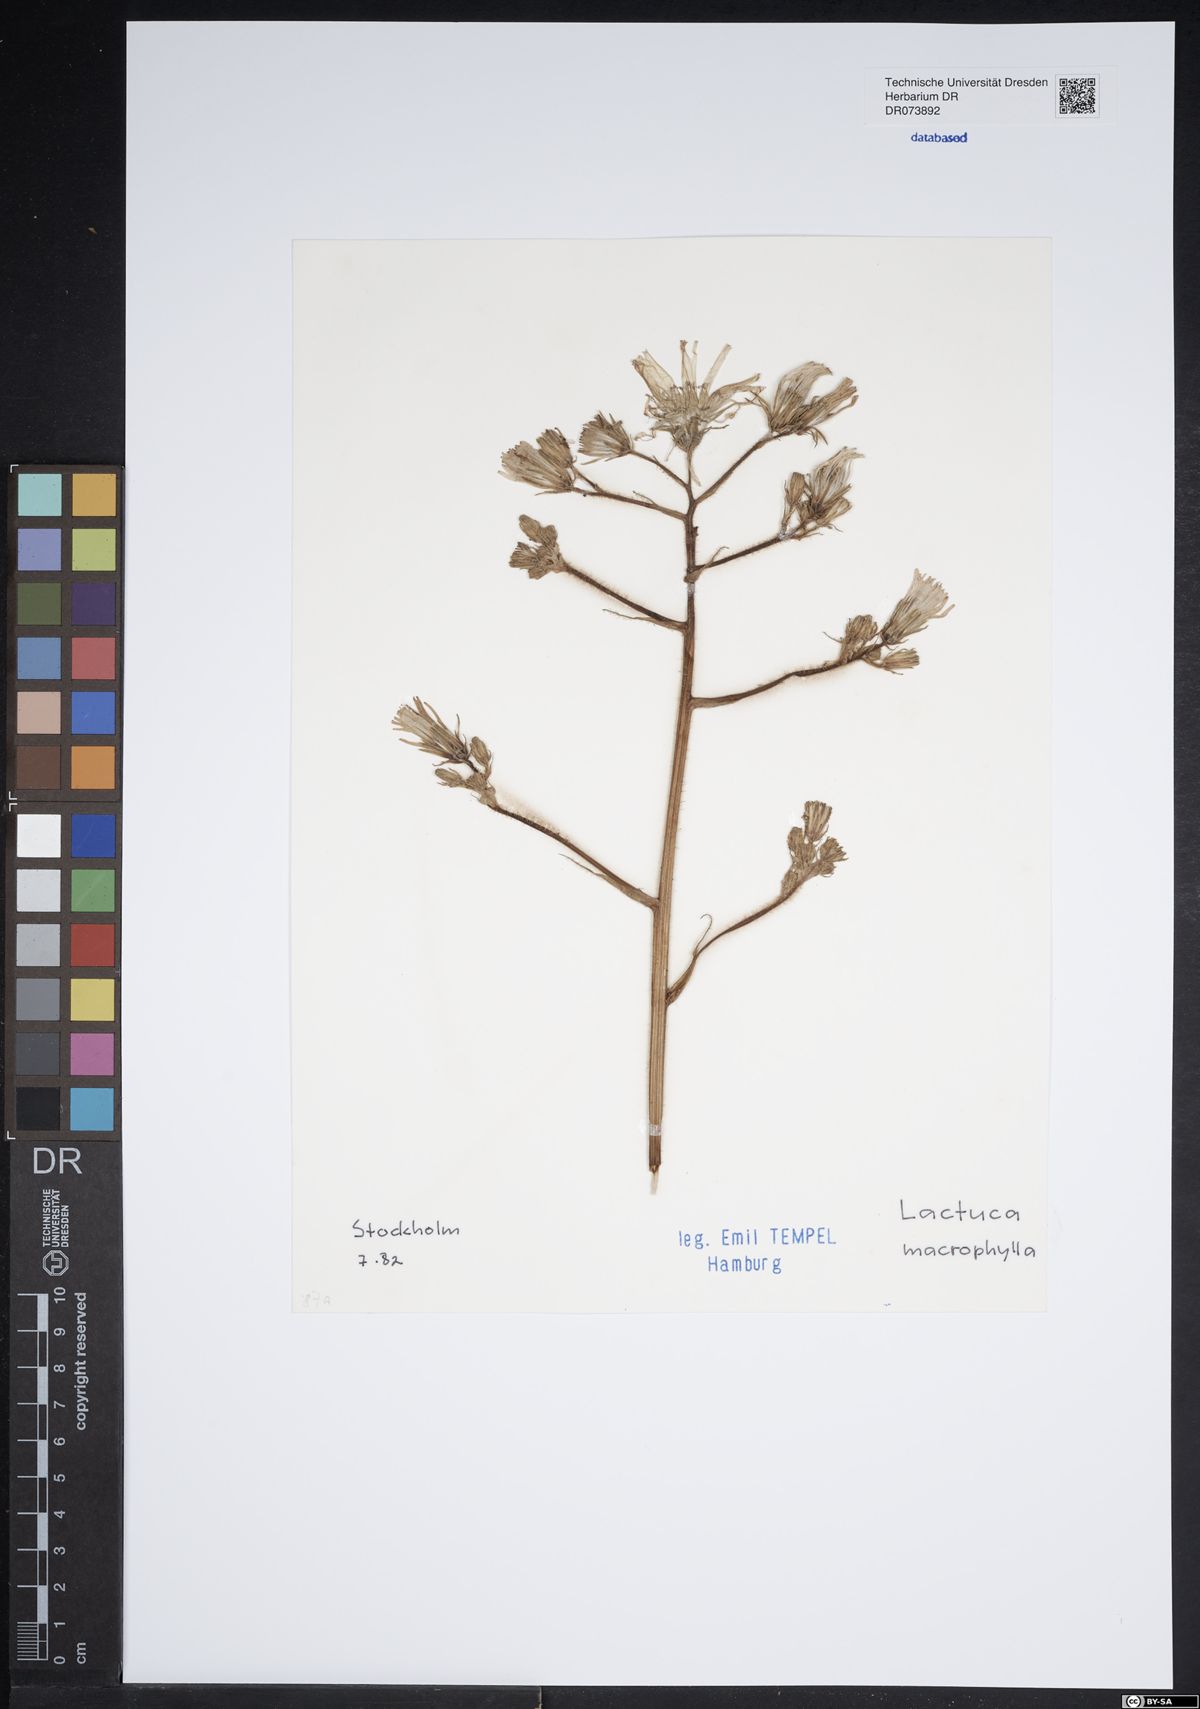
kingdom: Plantae
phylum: Tracheophyta
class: Magnoliopsida
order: Asterales
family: Asteraceae
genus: Lactuca
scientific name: Lactuca macrophylla
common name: Common blue-sow-thistle
